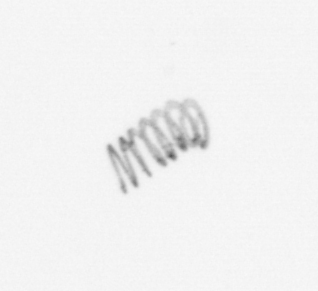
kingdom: Chromista
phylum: Ochrophyta
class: Bacillariophyceae
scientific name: Bacillariophyceae
